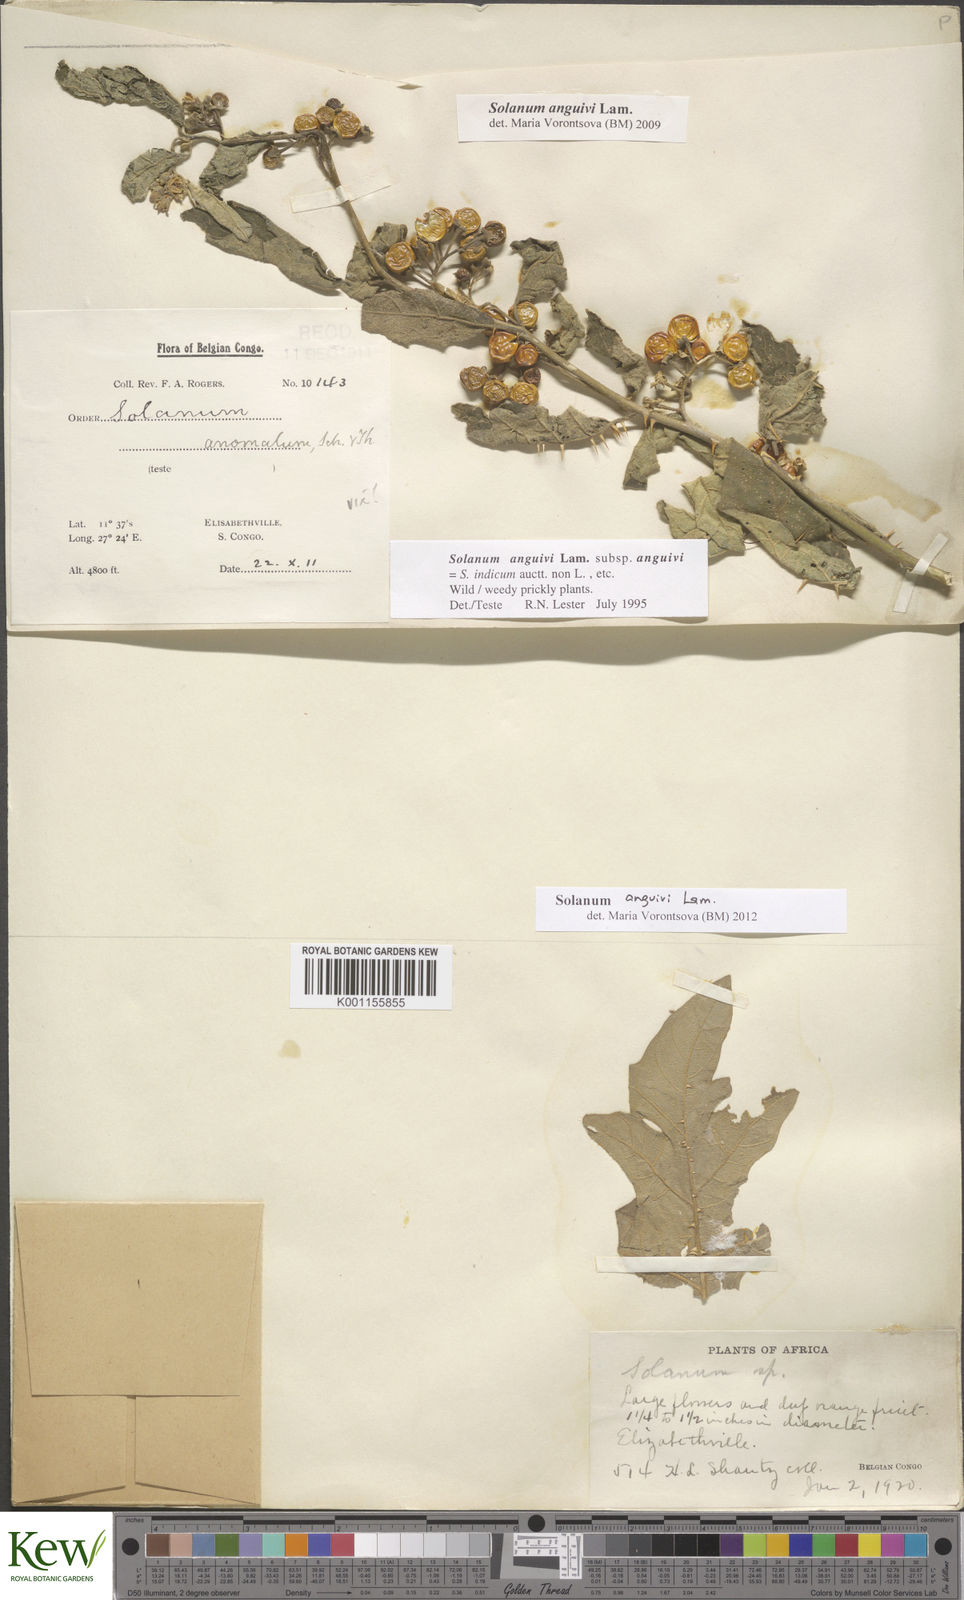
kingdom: Plantae
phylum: Tracheophyta
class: Magnoliopsida
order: Solanales
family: Solanaceae
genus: Solanum
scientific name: Solanum anguivi
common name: Forest bitterberry
